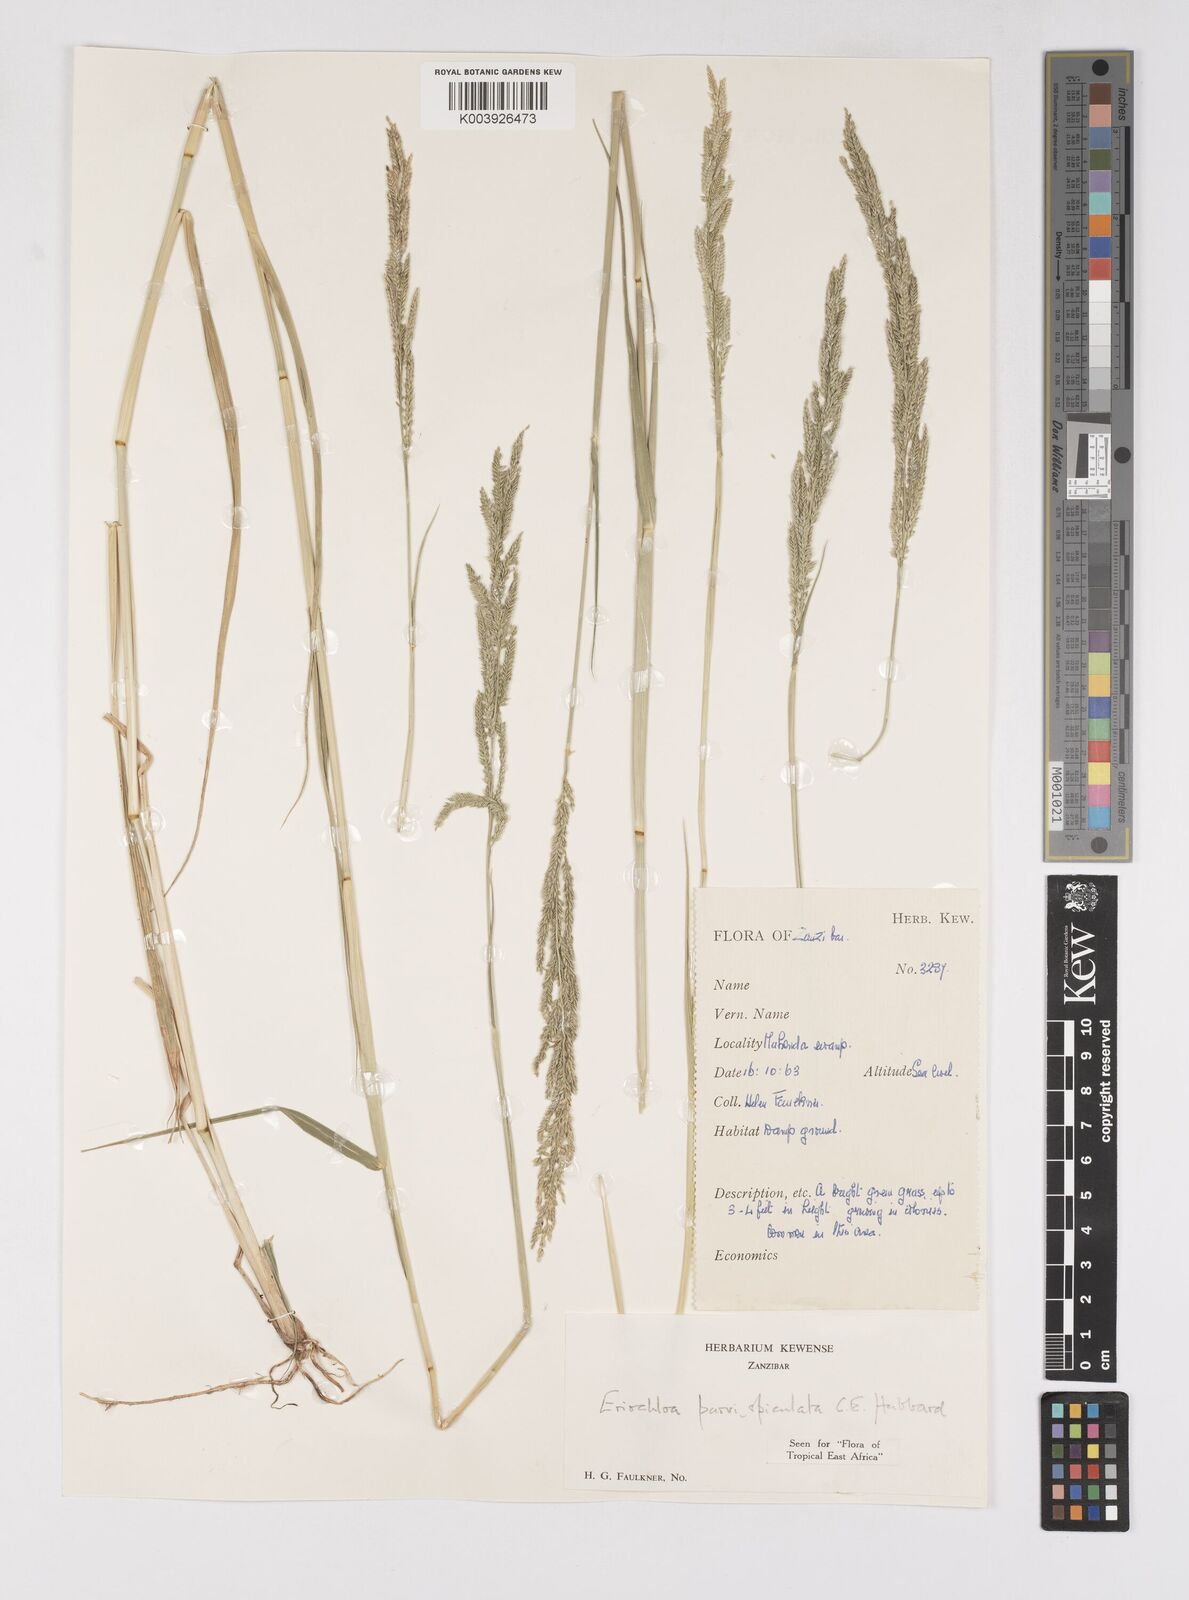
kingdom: Plantae
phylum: Tracheophyta
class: Liliopsida
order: Poales
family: Poaceae
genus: Eriochloa
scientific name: Eriochloa parvispiculata
